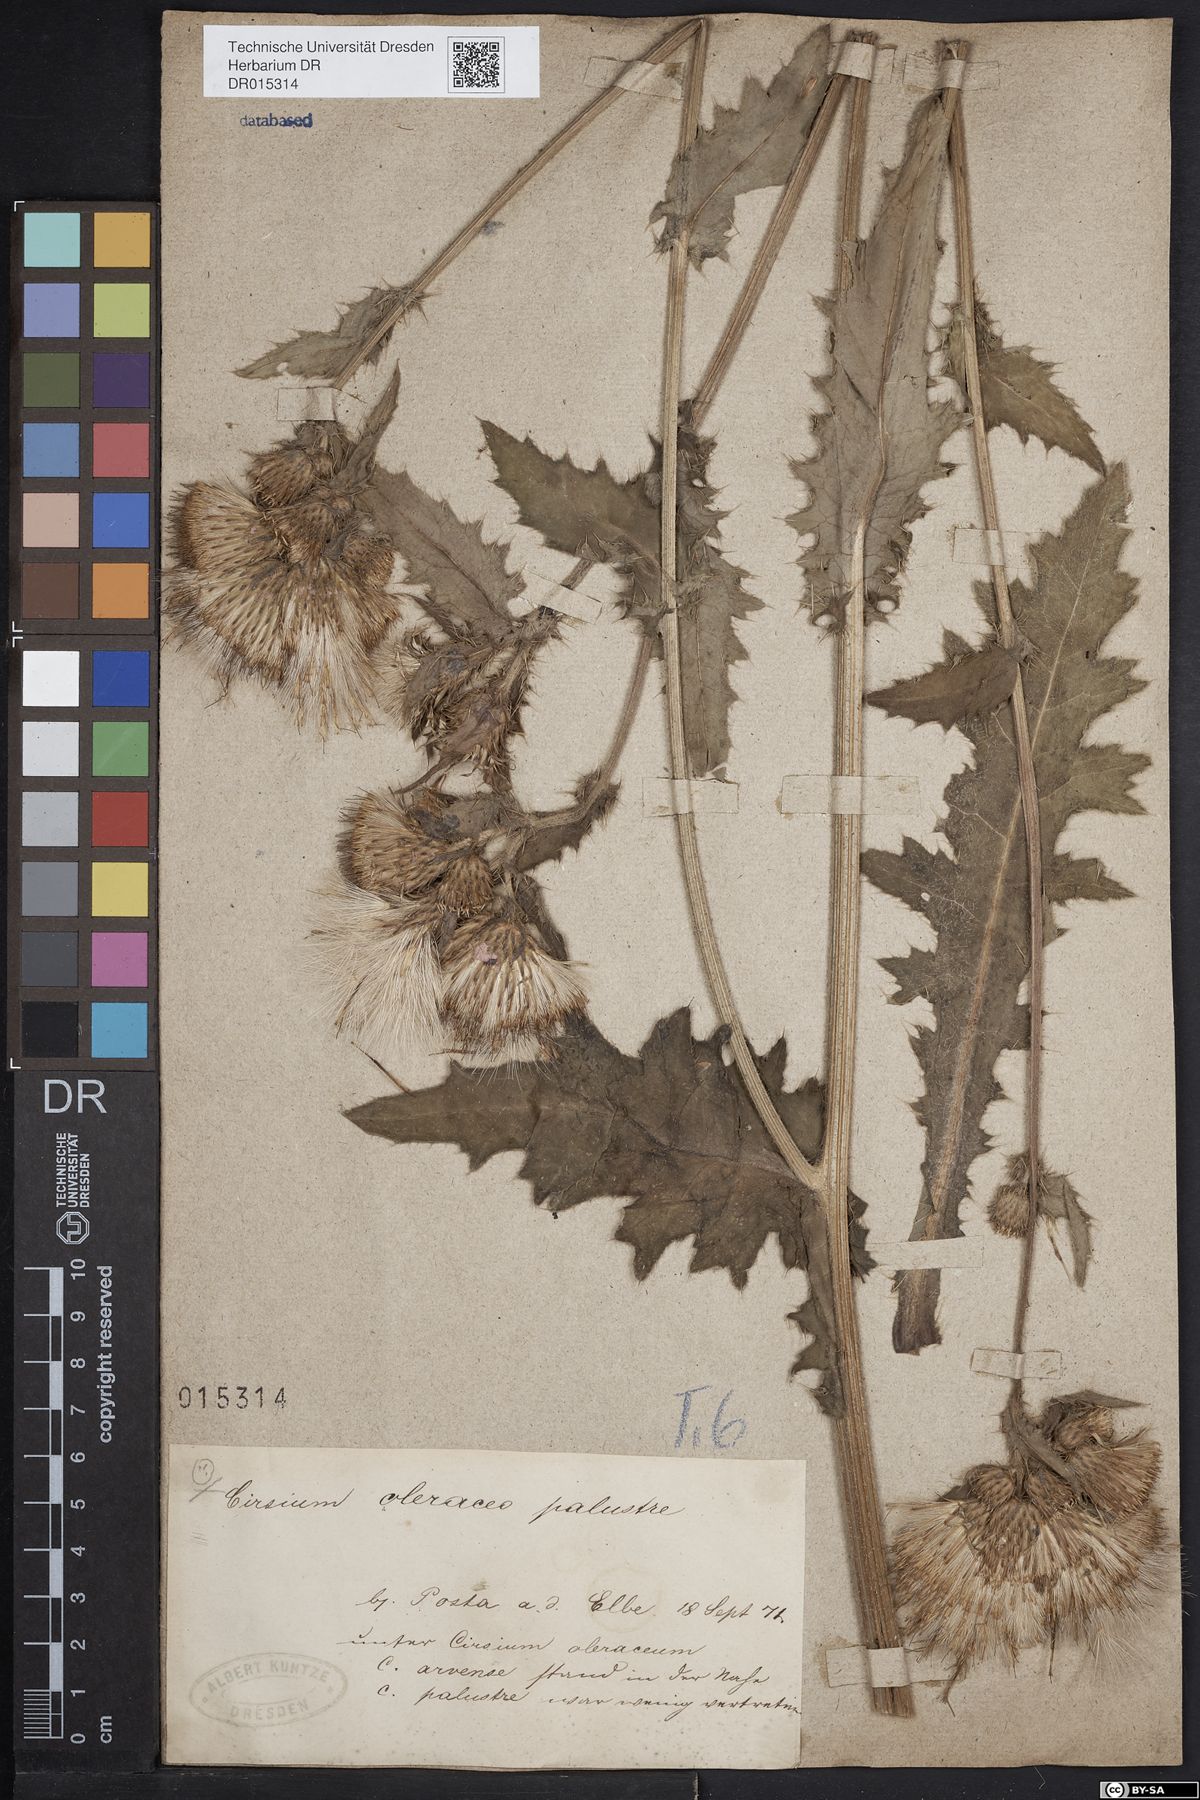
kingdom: Plantae
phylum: Tracheophyta
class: Magnoliopsida
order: Asterales
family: Asteraceae
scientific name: Asteraceae
